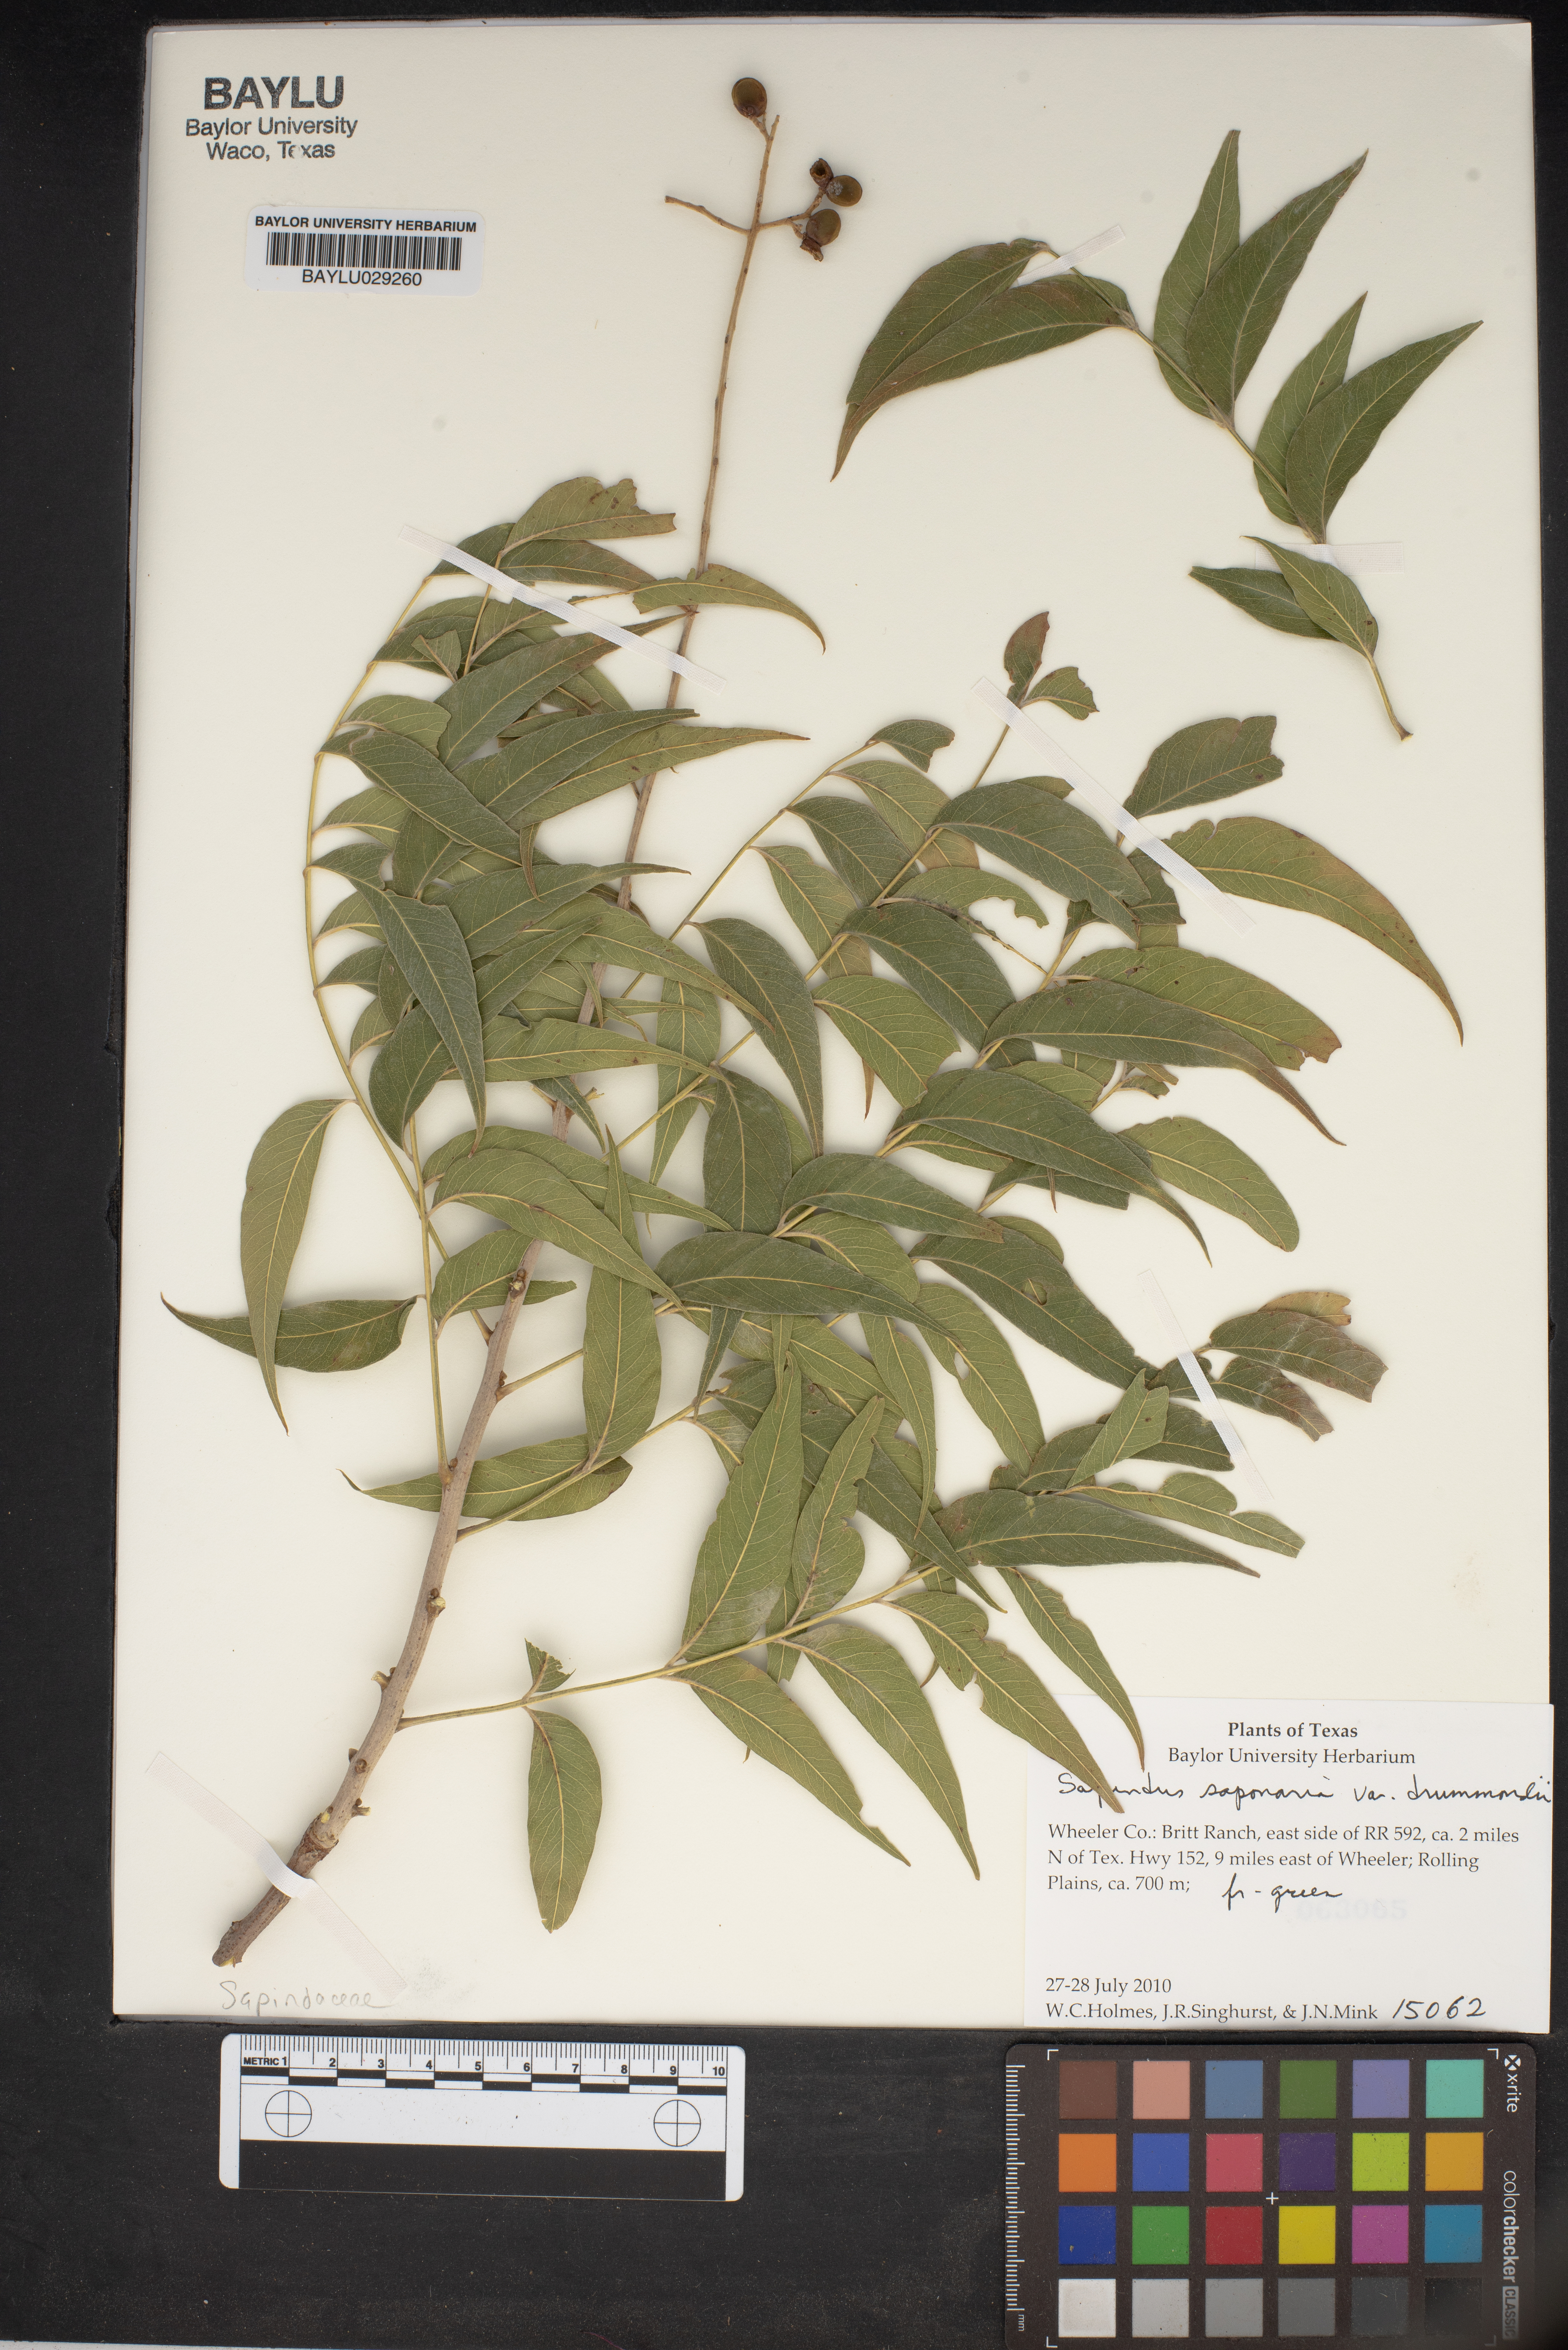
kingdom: Plantae
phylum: Tracheophyta
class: Magnoliopsida
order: Sapindales
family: Sapindaceae
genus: Sapindus
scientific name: Sapindus drummondii
